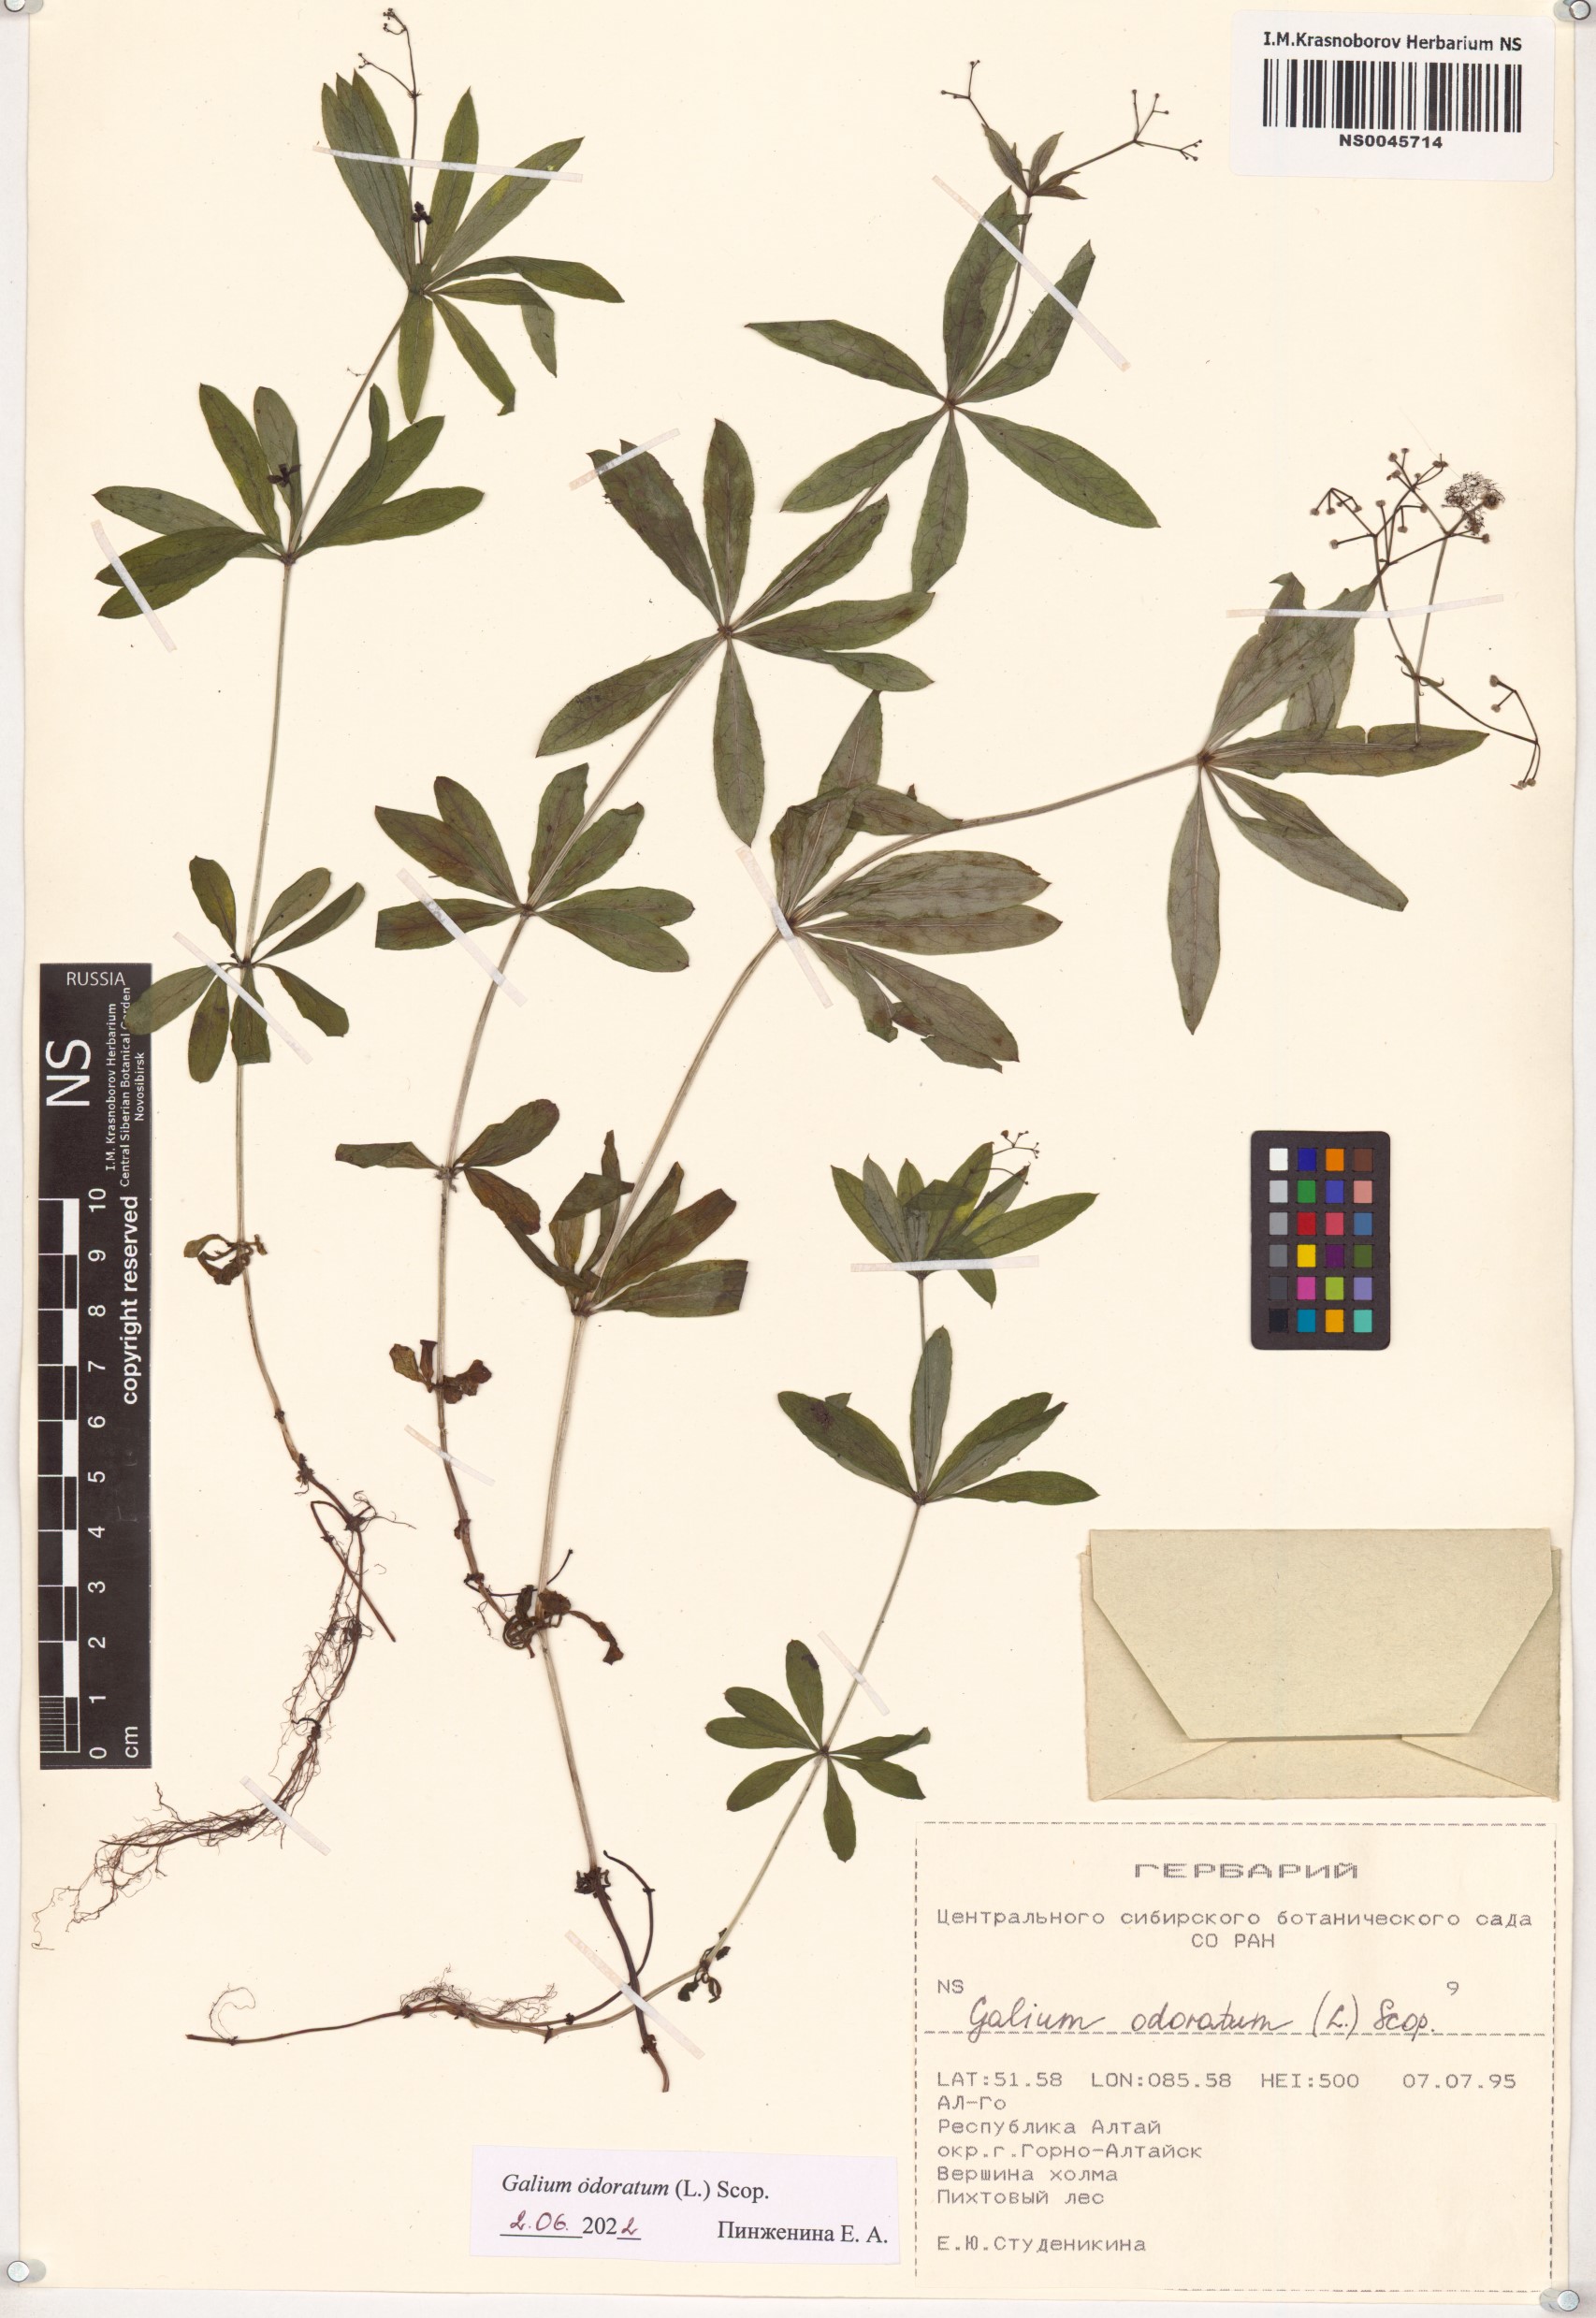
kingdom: Plantae
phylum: Tracheophyta
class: Magnoliopsida
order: Gentianales
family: Rubiaceae
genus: Galium
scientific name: Galium odoratum
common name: Sweet woodruff
